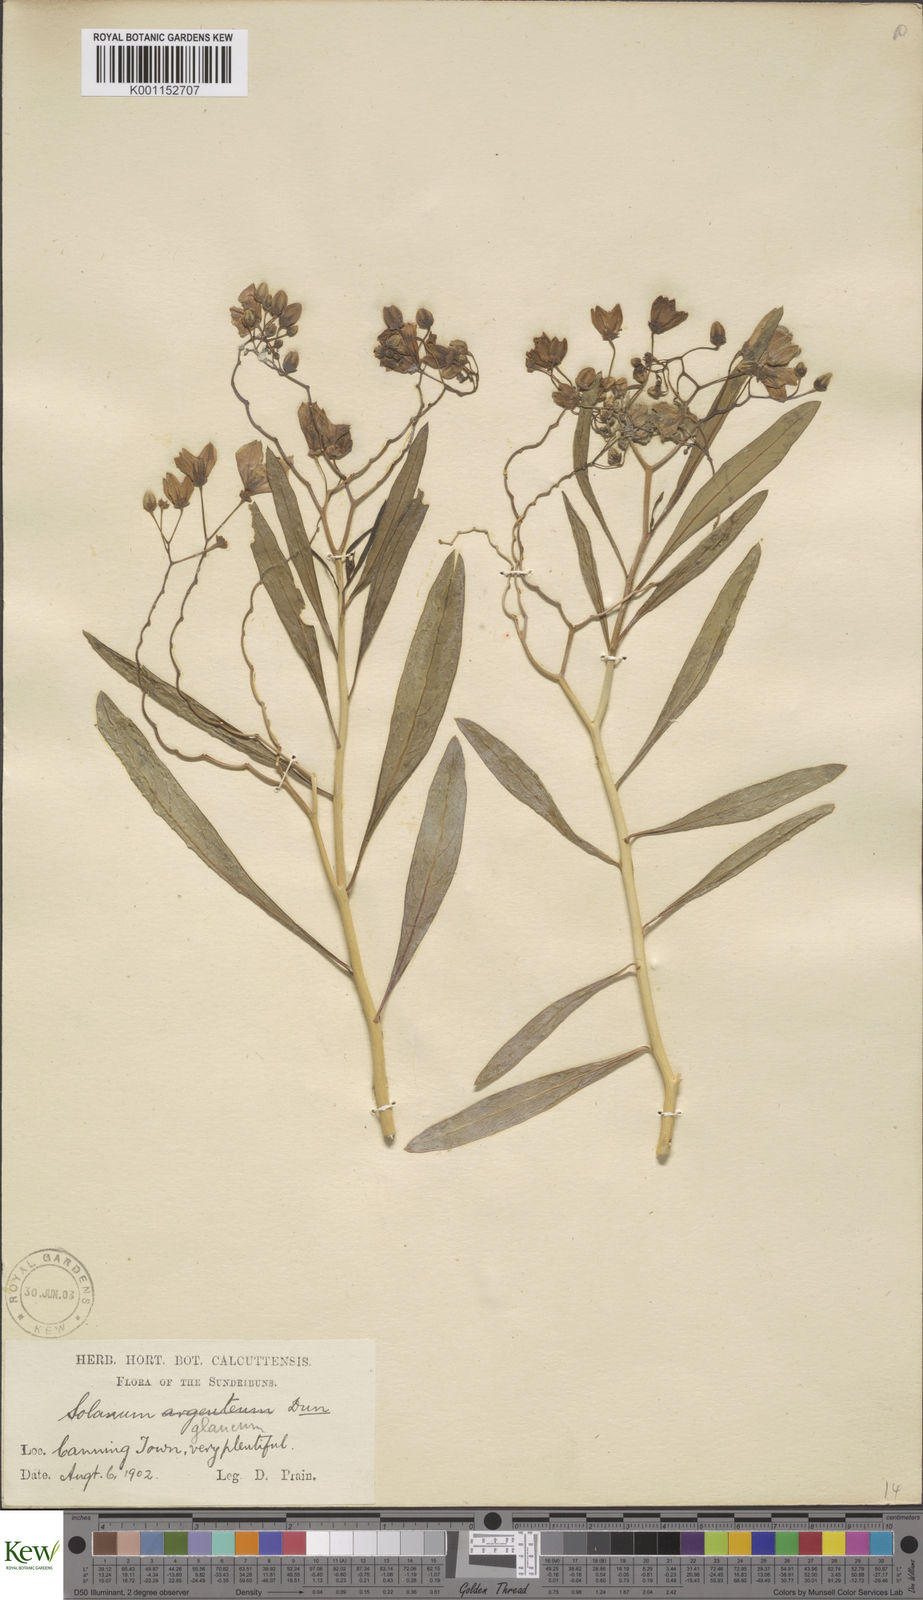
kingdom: Plantae
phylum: Tracheophyta
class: Magnoliopsida
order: Solanales
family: Solanaceae
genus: Solanum
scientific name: Solanum glaucophyllum
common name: Waxyleaf nightshade
